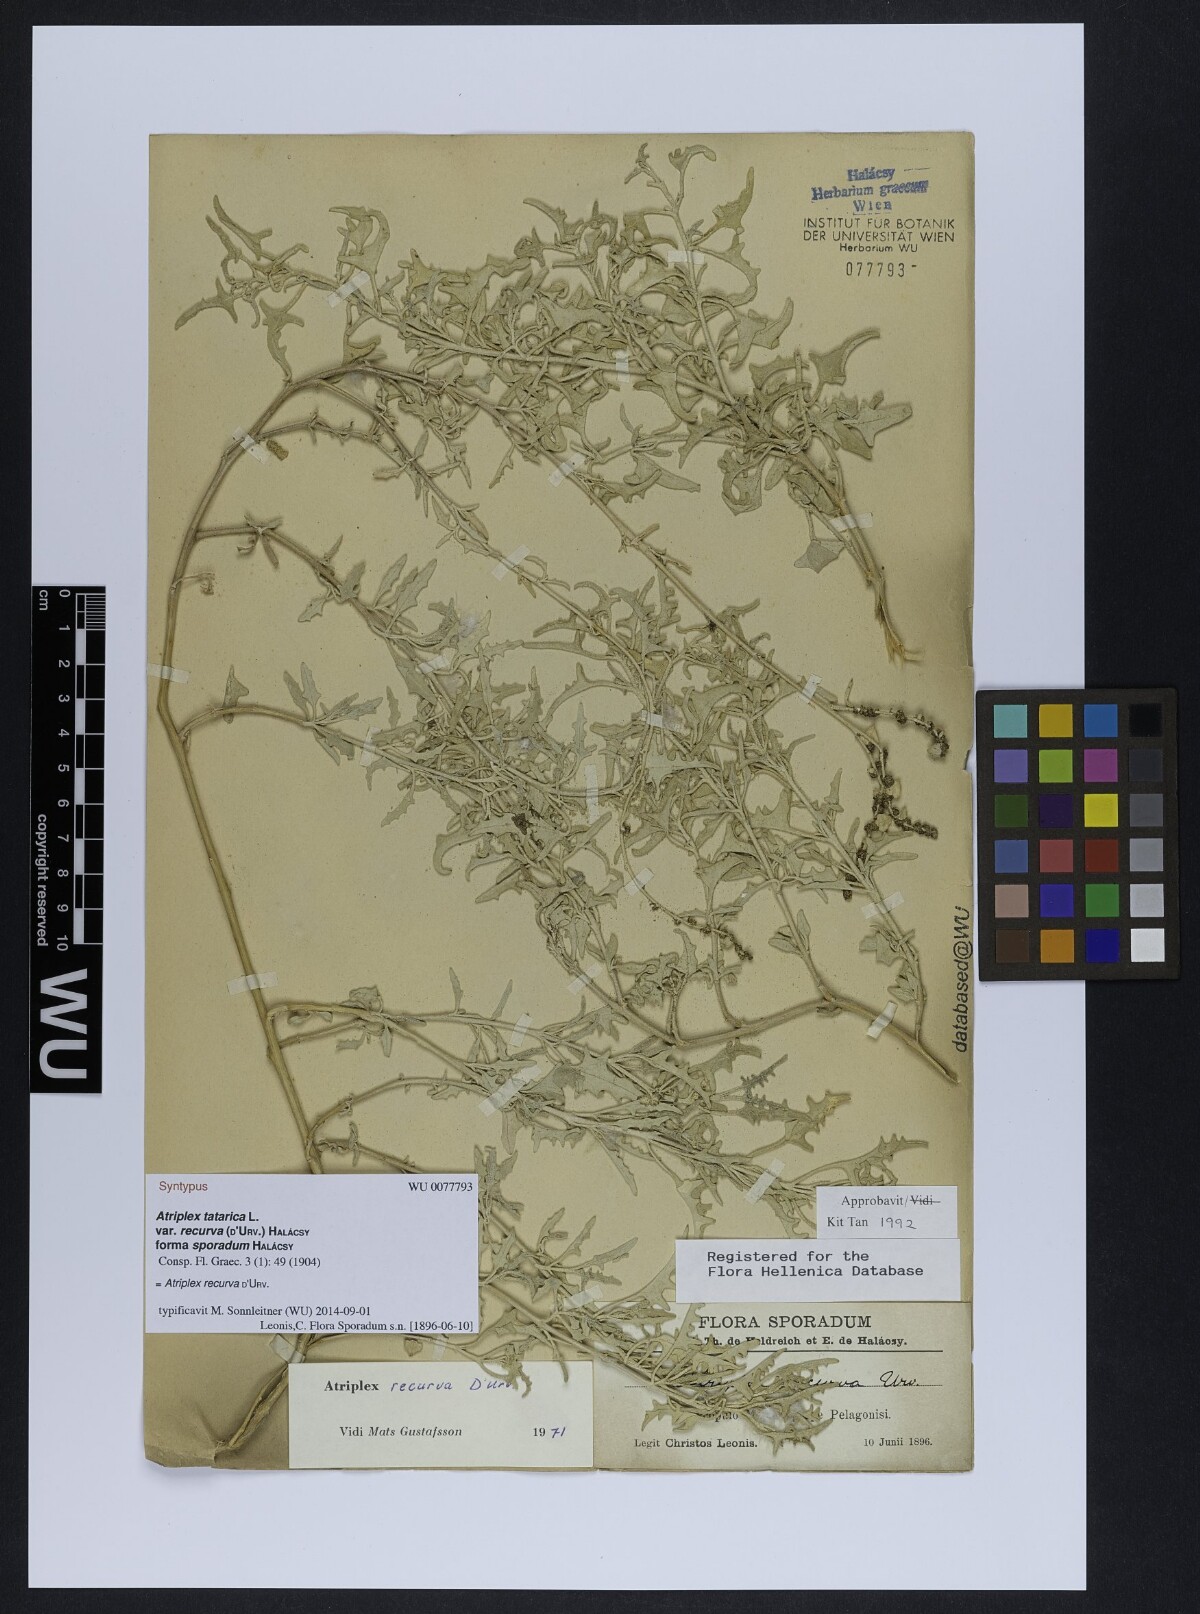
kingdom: Plantae
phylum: Tracheophyta
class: Magnoliopsida
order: Caryophyllales
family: Amaranthaceae
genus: Atriplex
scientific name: Atriplex recurva
